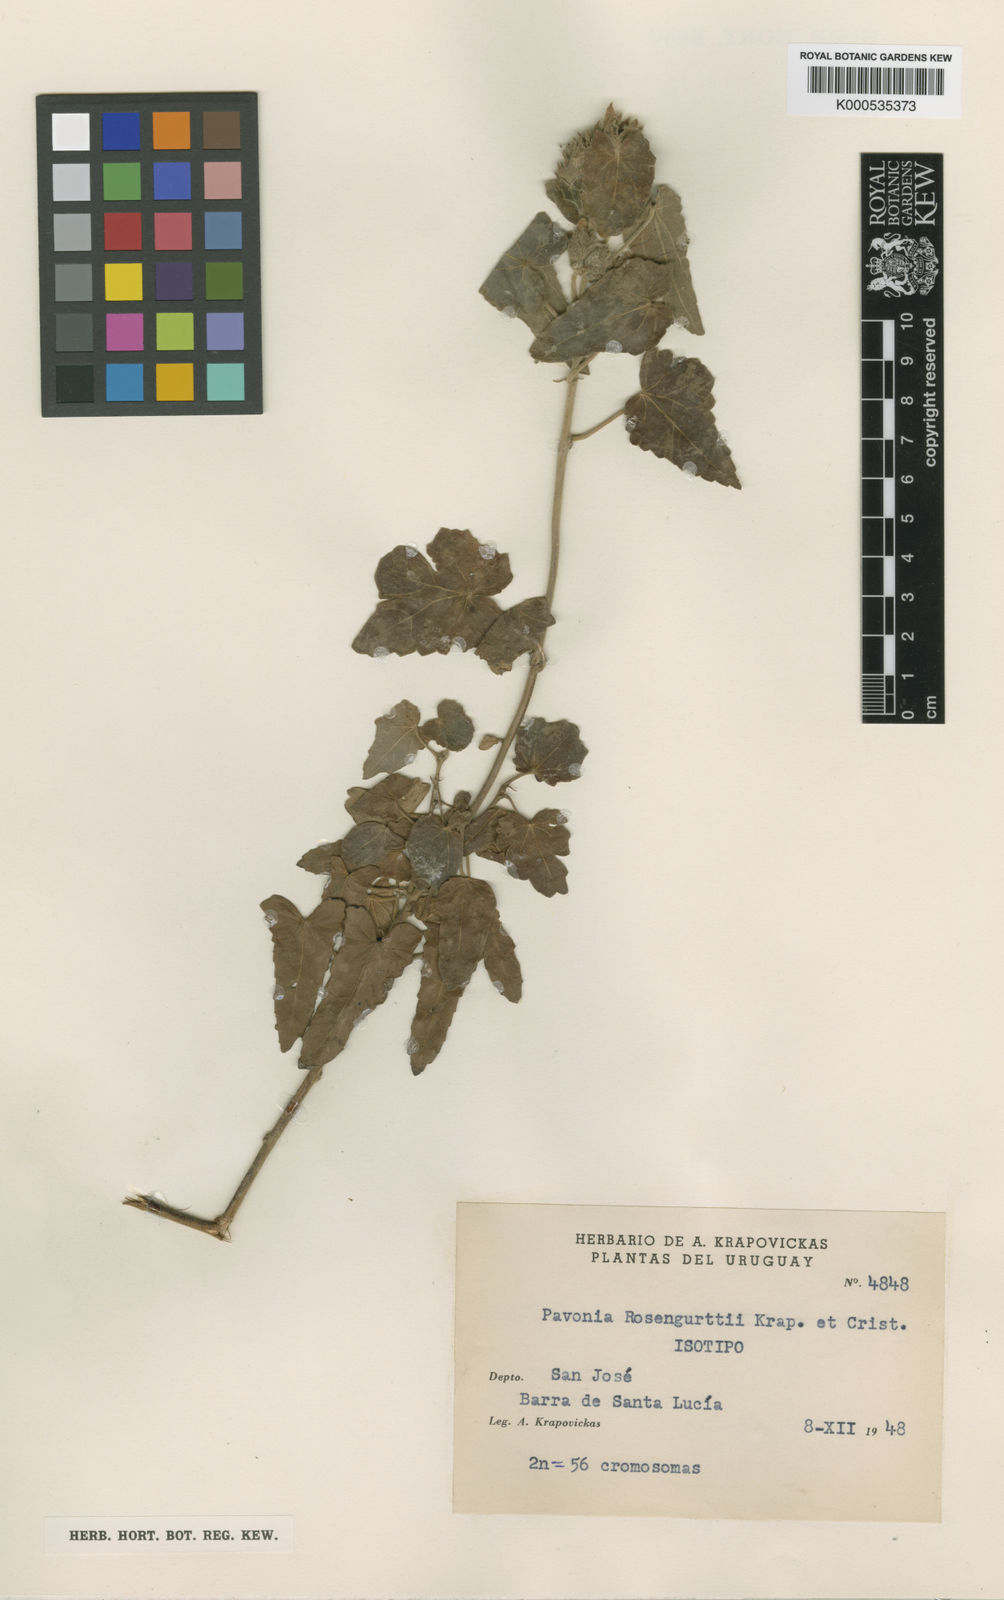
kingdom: Plantae
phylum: Tracheophyta
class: Magnoliopsida
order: Malvales
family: Malvaceae
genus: Pavonia
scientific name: Pavonia
